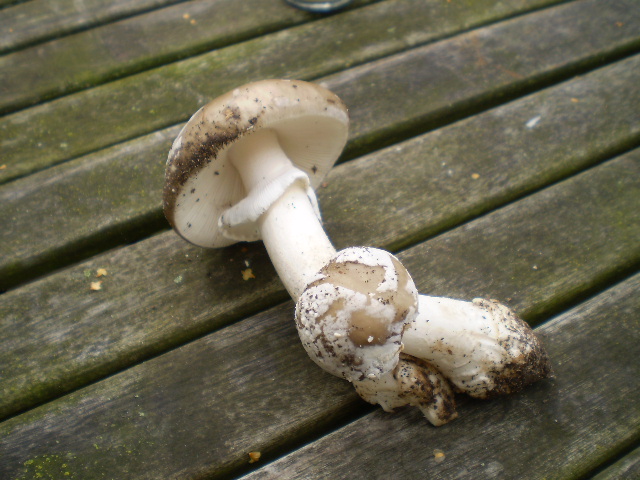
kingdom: Fungi
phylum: Basidiomycota
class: Agaricomycetes
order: Agaricales
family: Amanitaceae
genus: Amanita
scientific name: Amanita
